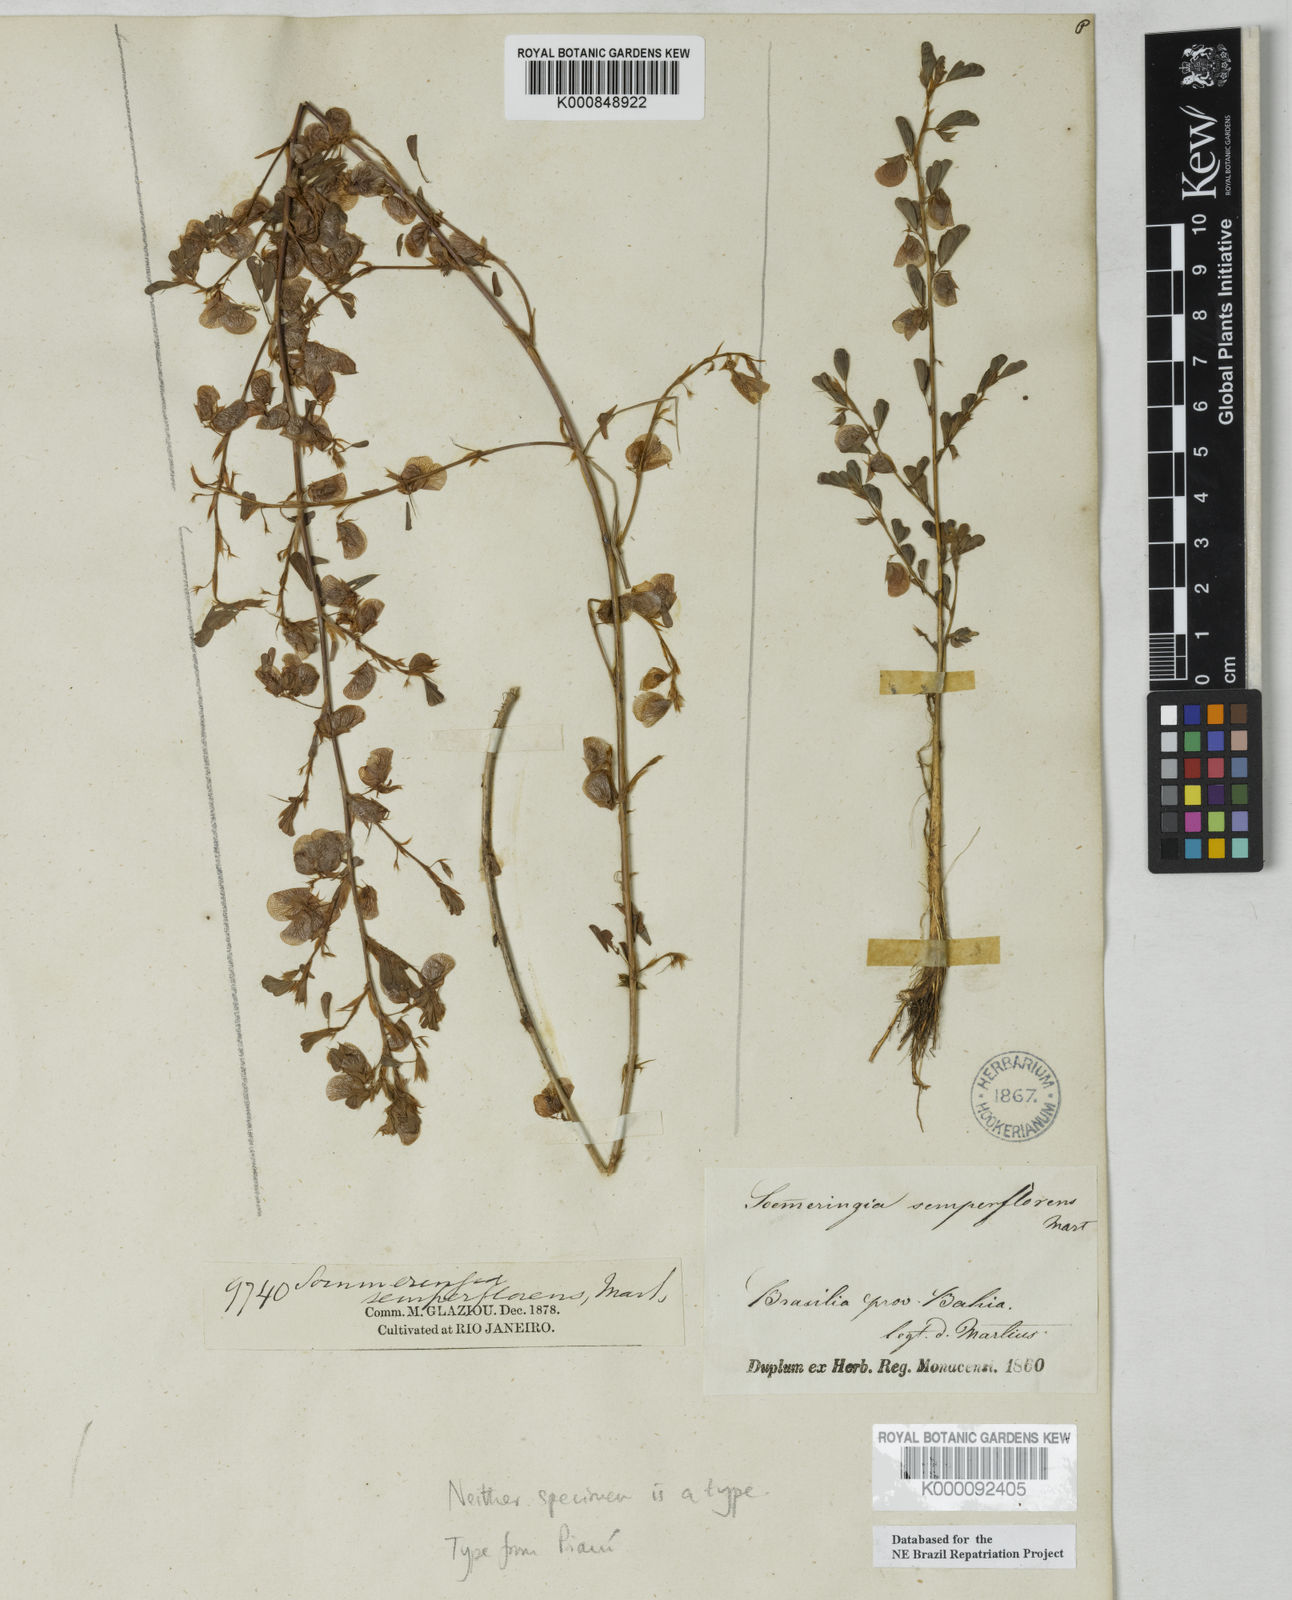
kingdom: Plantae
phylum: Tracheophyta
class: Magnoliopsida
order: Fabales
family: Fabaceae
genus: Soemmeringia
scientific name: Soemmeringia semperflorens
